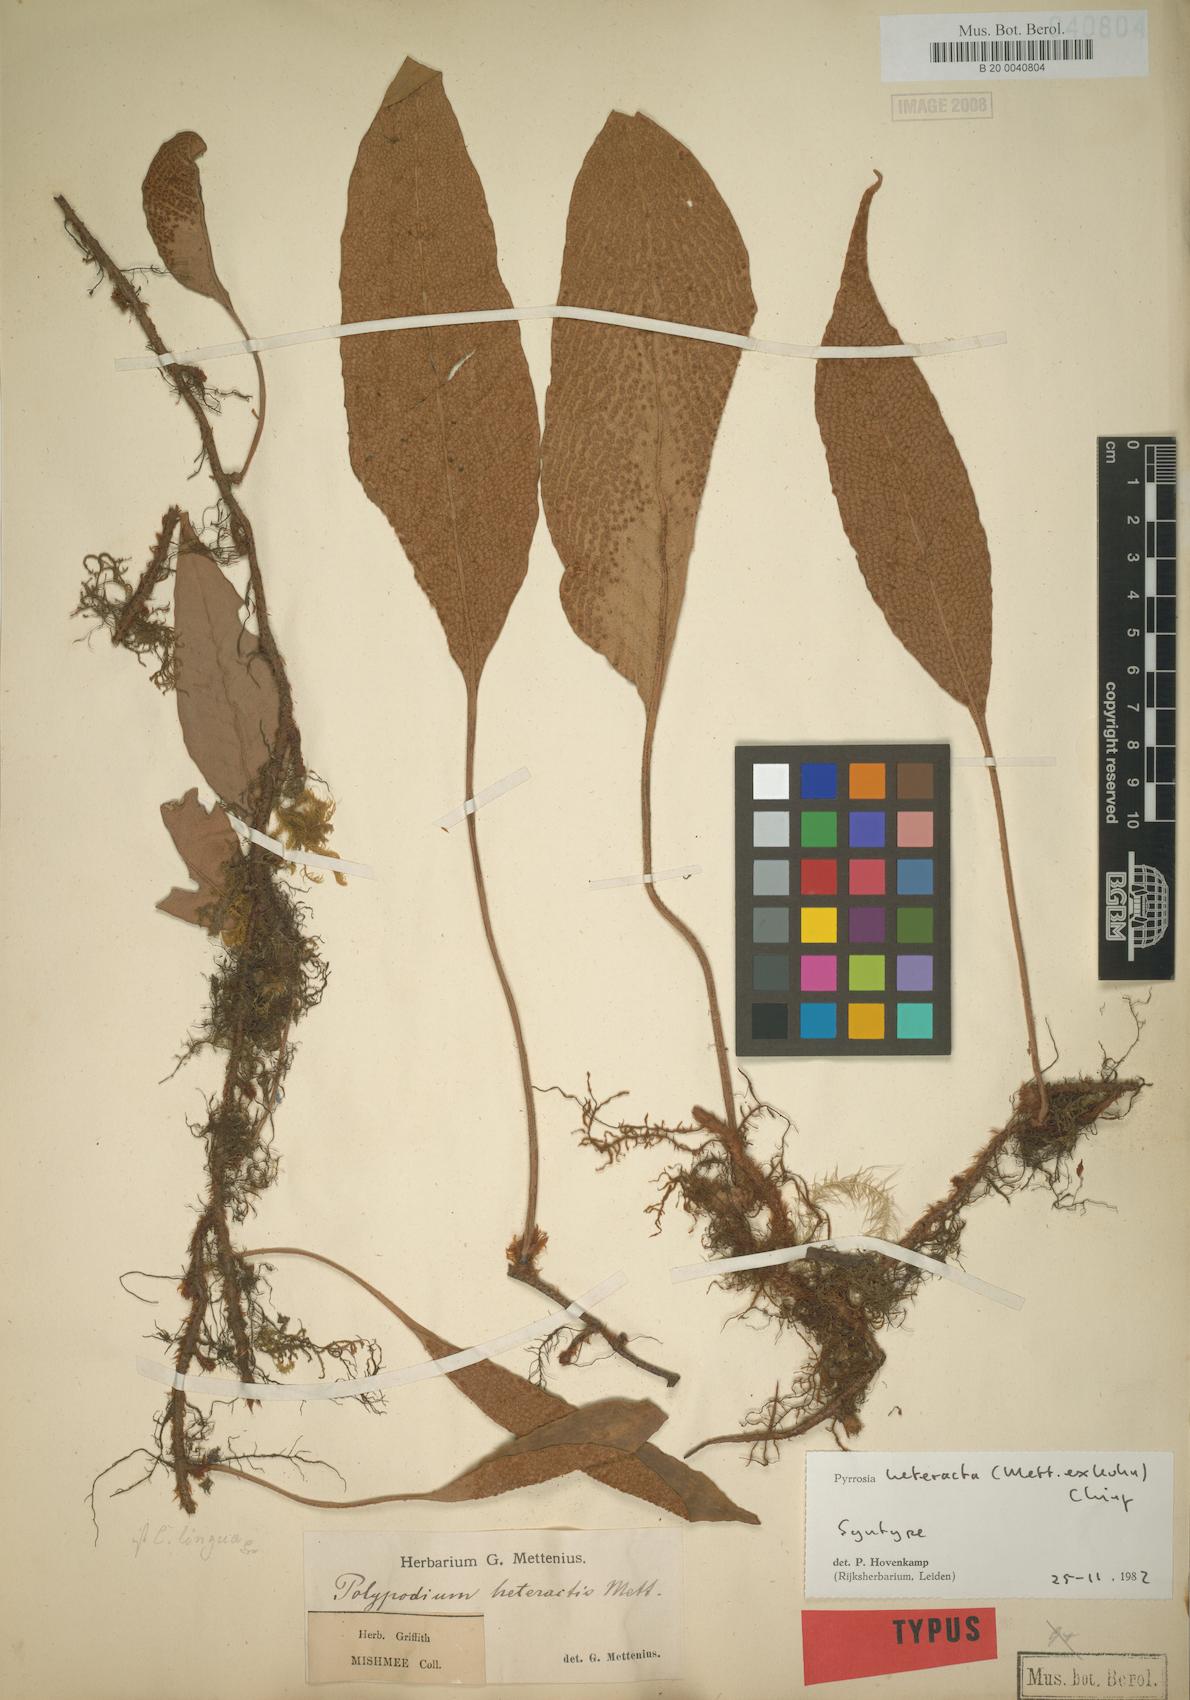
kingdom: Plantae
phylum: Tracheophyta
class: Polypodiopsida
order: Polypodiales
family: Polypodiaceae
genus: Pyrrosia
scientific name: Pyrrosia heteractis
